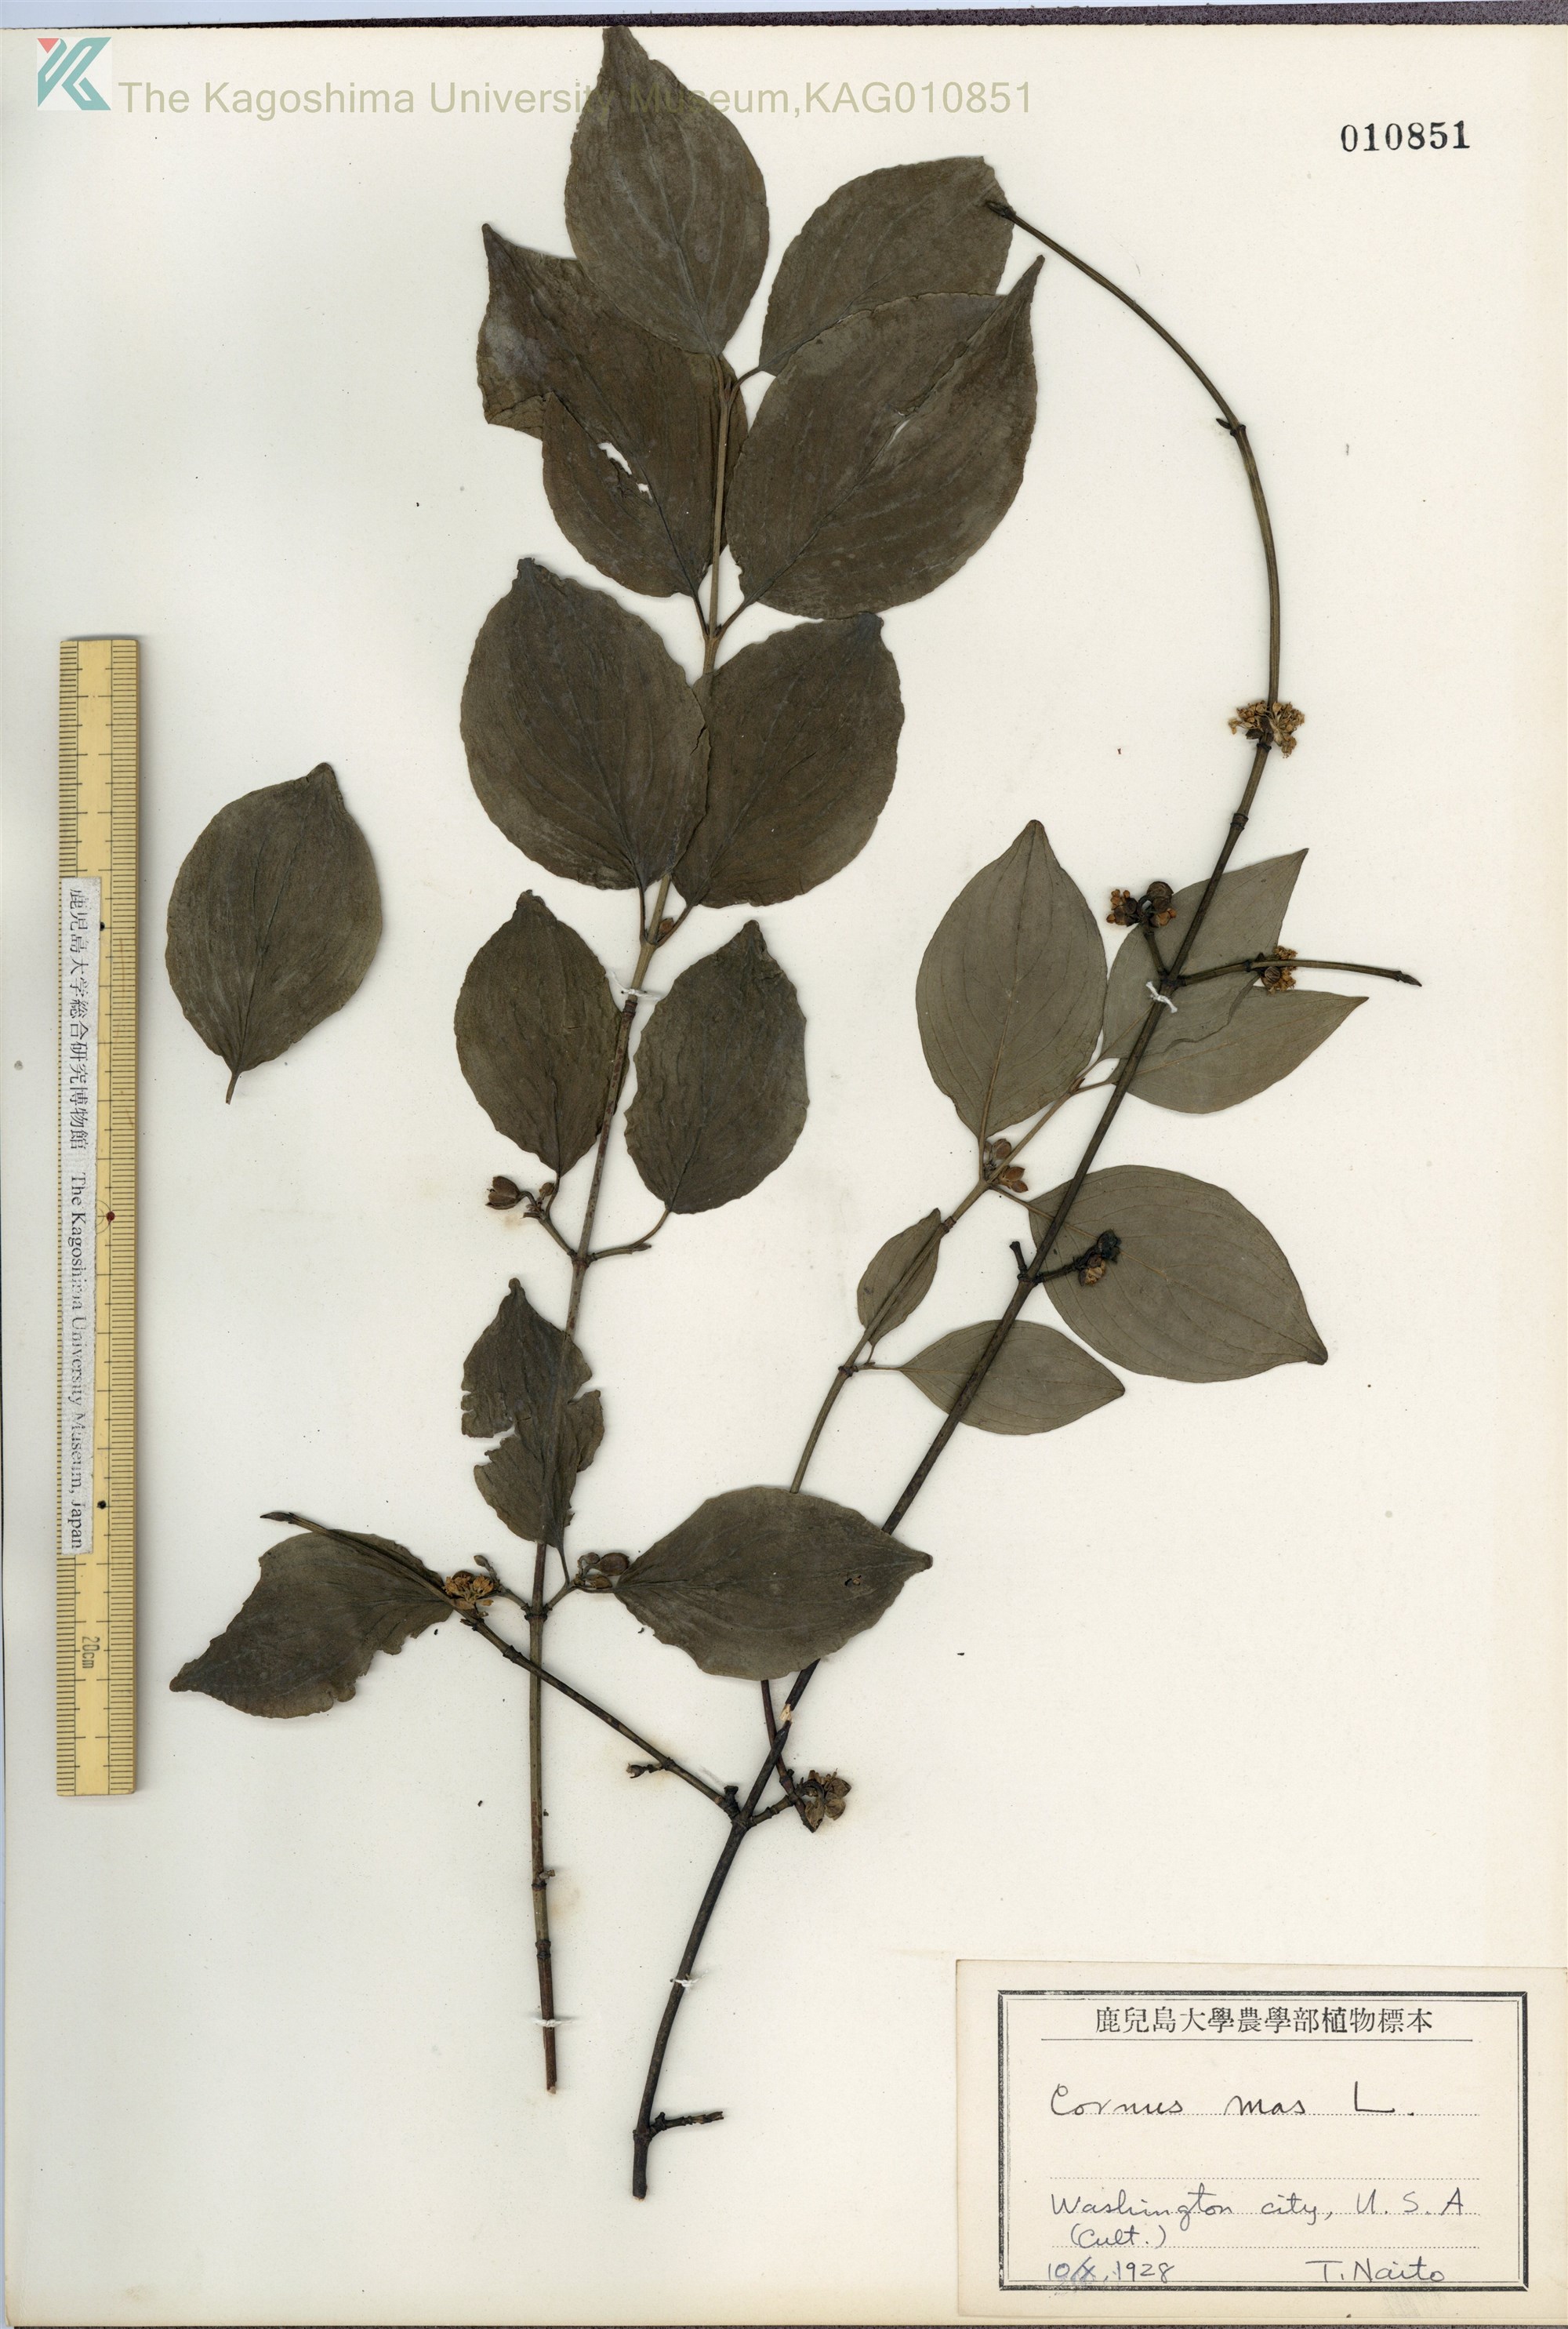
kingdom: Plantae
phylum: Tracheophyta
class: Magnoliopsida
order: Cornales
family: Cornaceae
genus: Cornus
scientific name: Cornus mas
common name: Cornelian-cherry
